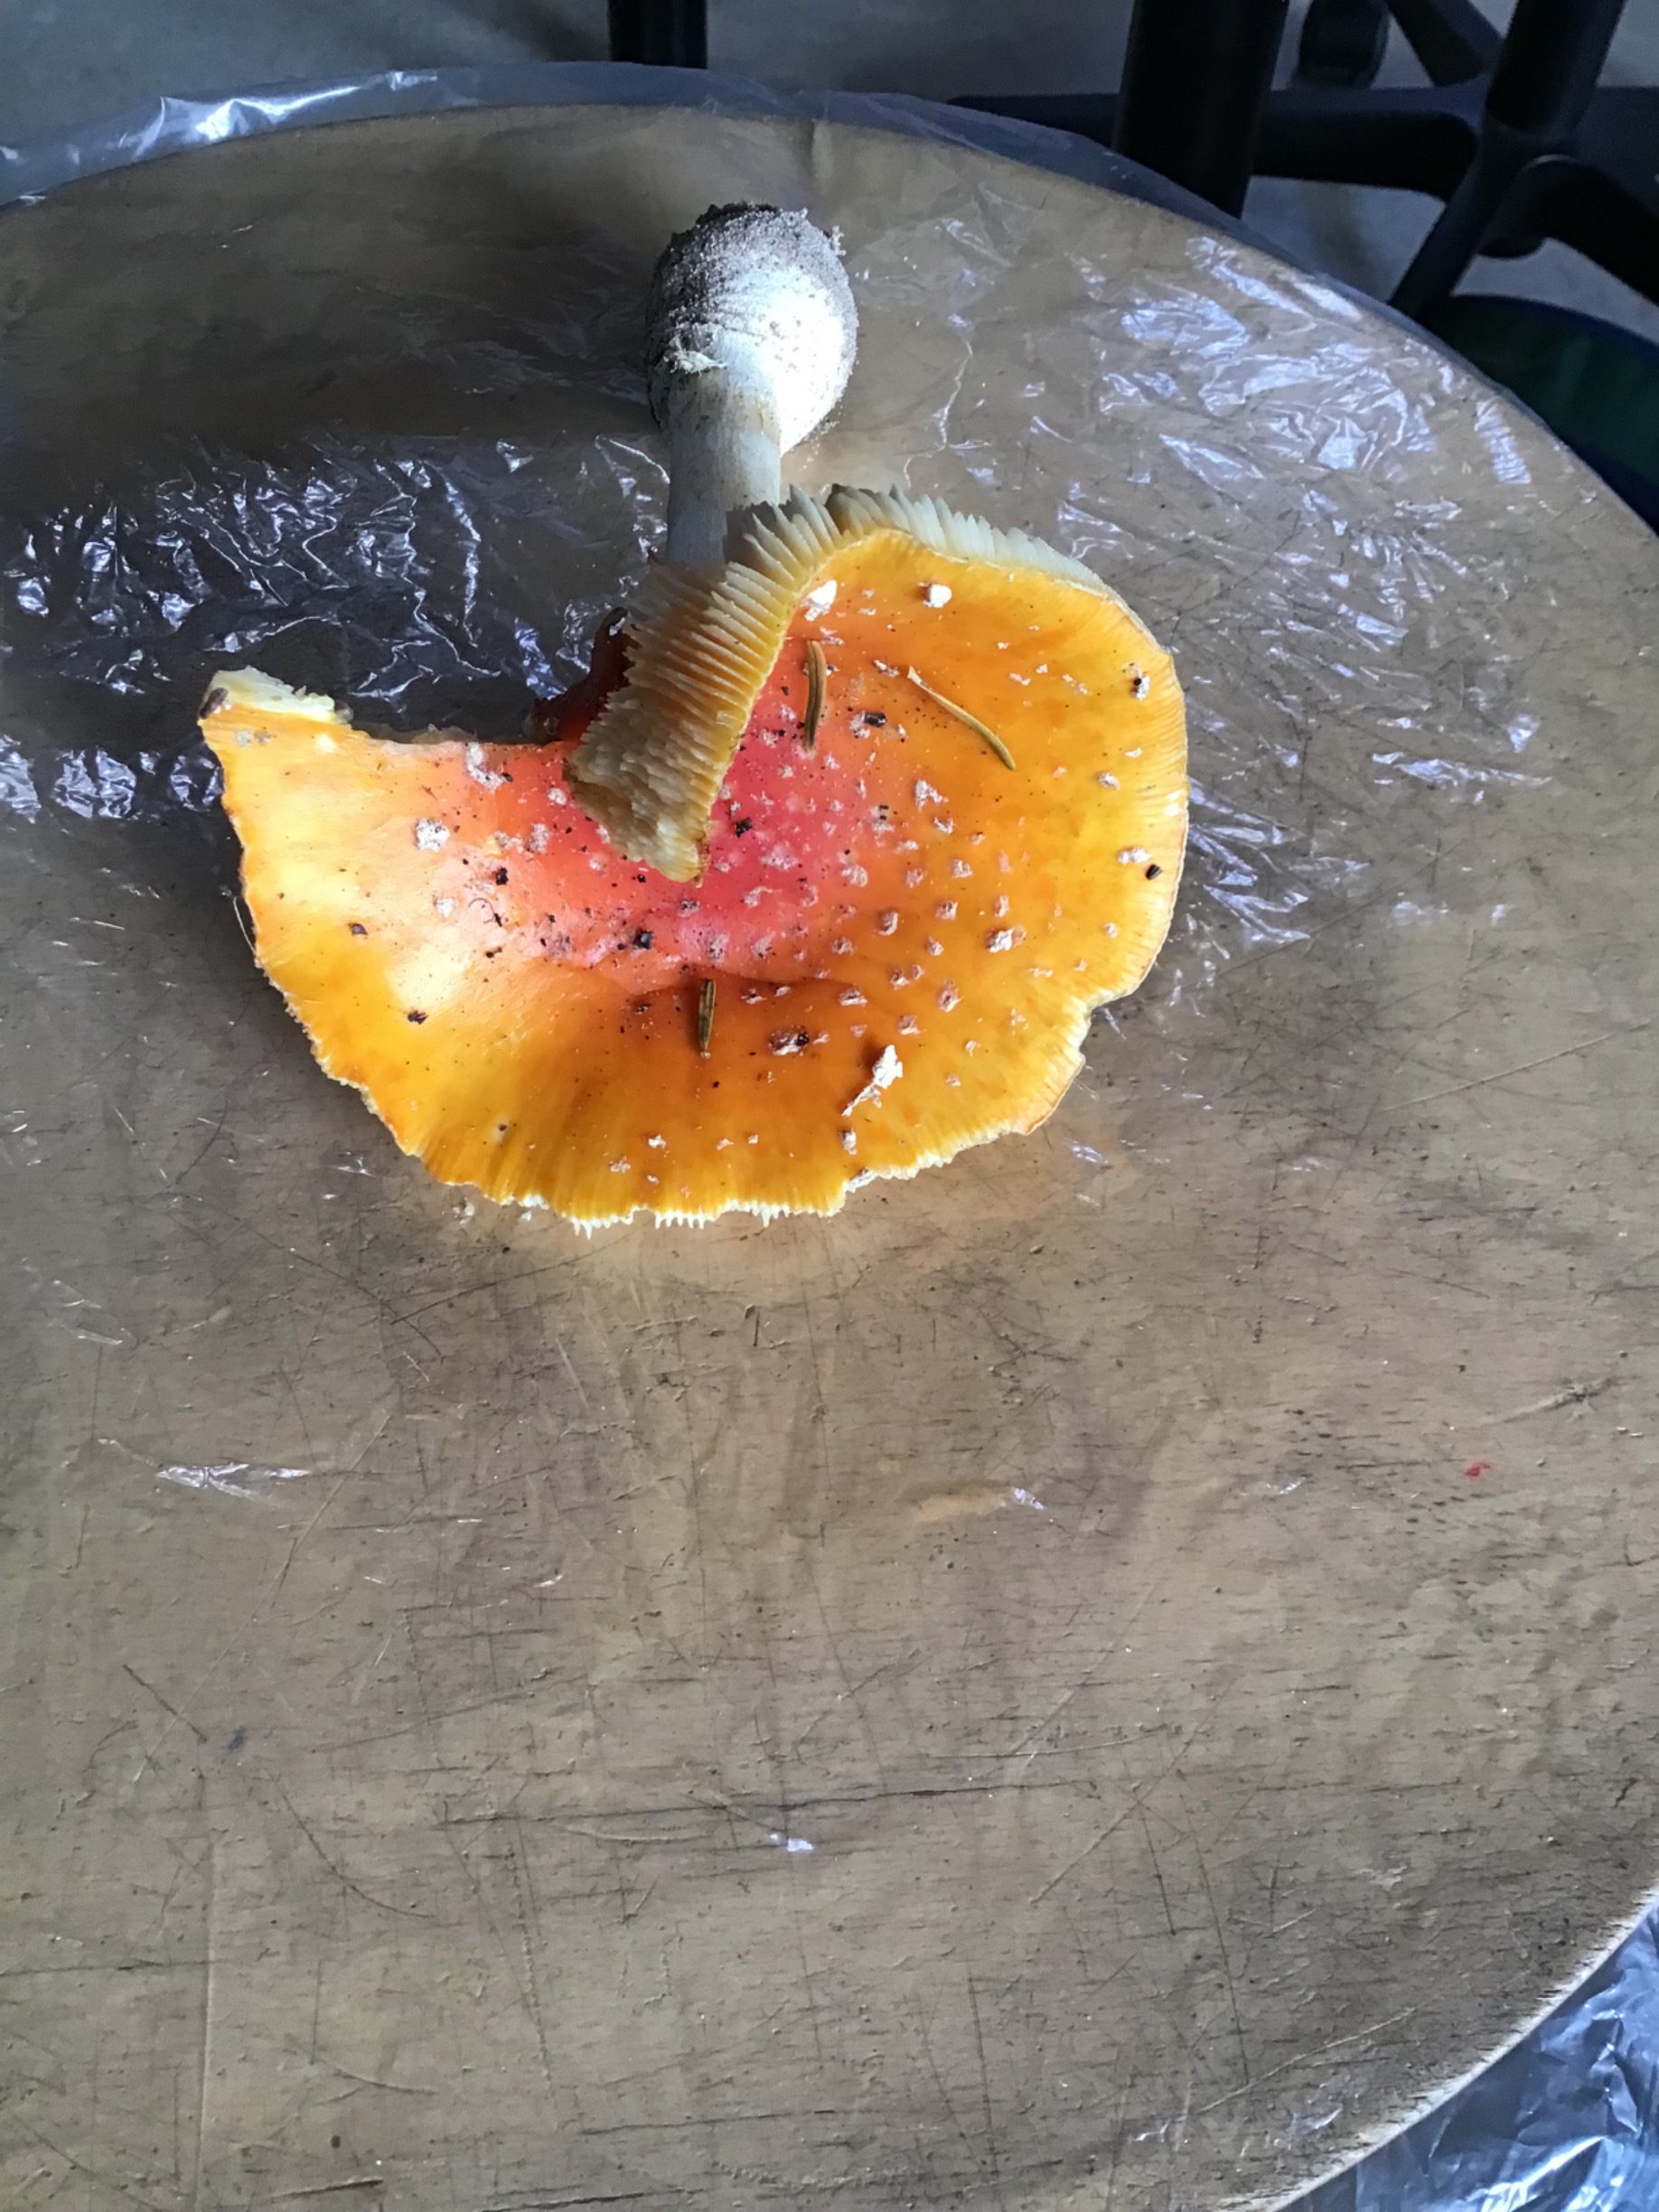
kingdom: Fungi
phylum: Basidiomycota
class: Agaricomycetes
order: Agaricales
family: Amanitaceae
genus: Amanita
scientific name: Amanita muscaria
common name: Rød fluesvamp
